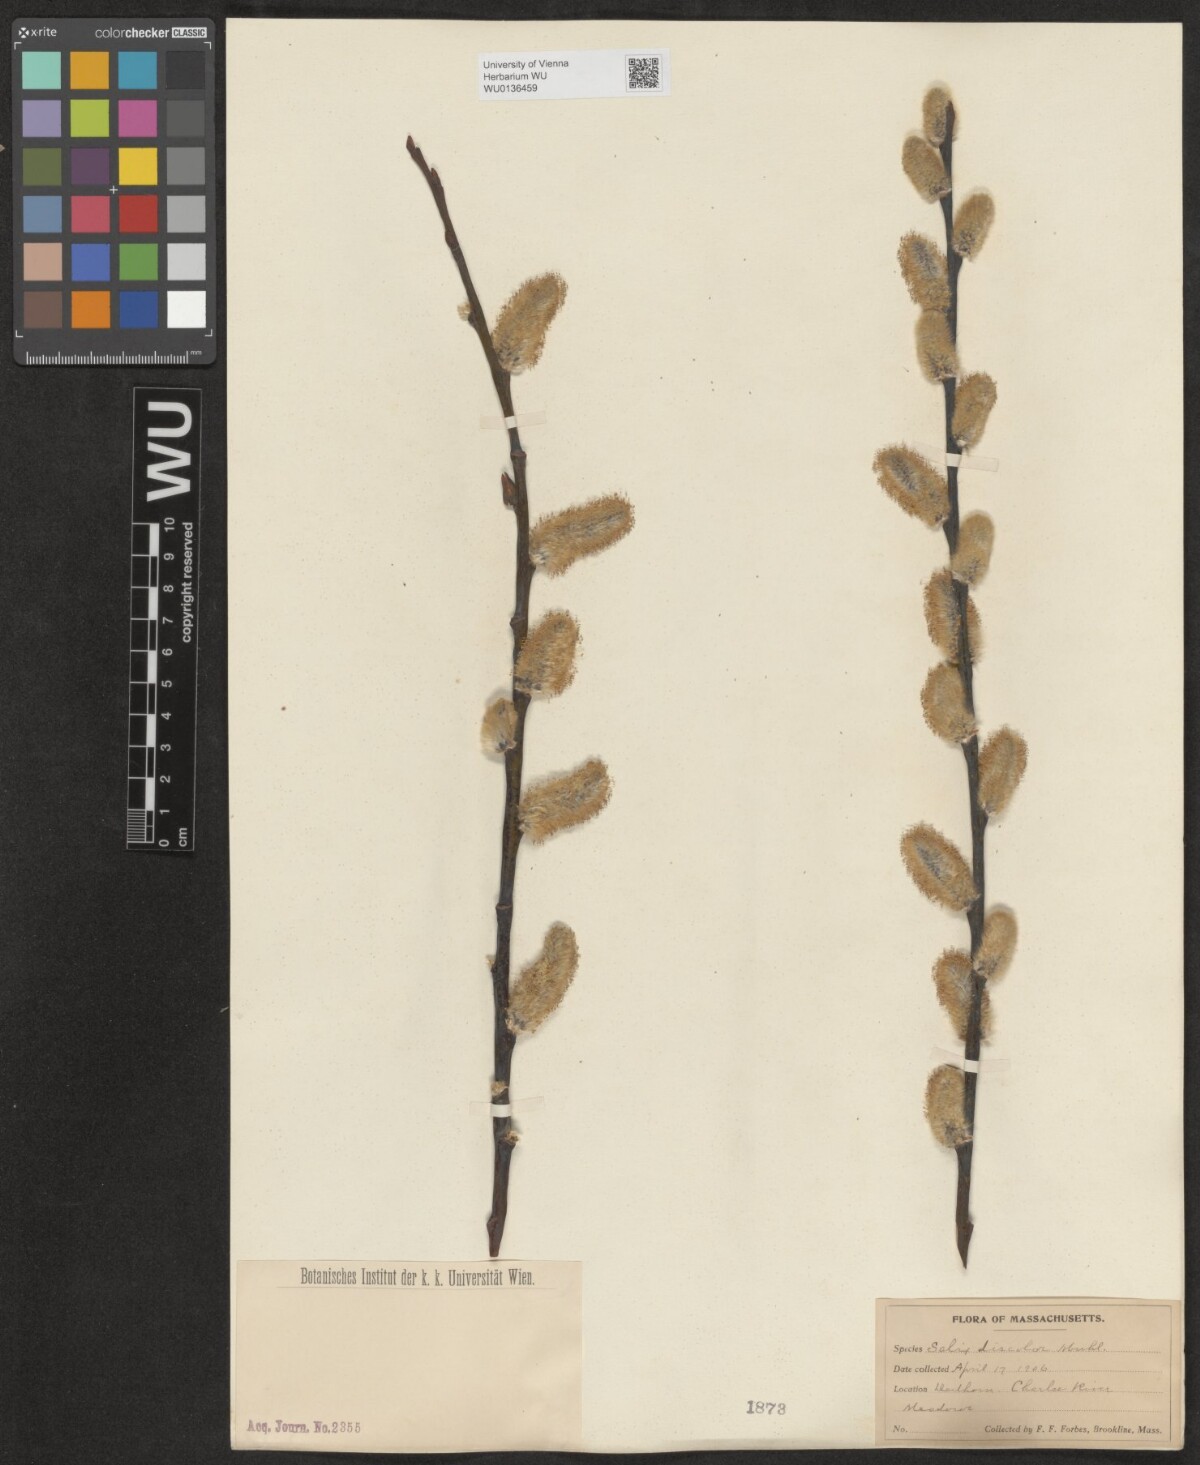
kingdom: Plantae
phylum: Tracheophyta
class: Magnoliopsida
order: Malpighiales
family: Salicaceae
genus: Salix
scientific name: Salix discolor
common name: Glaucous willow
